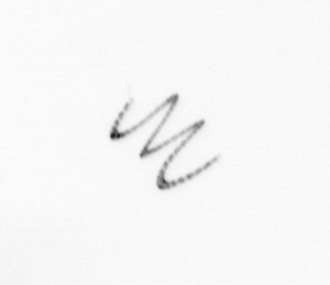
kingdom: Chromista
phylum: Ochrophyta
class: Bacillariophyceae
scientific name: Bacillariophyceae
